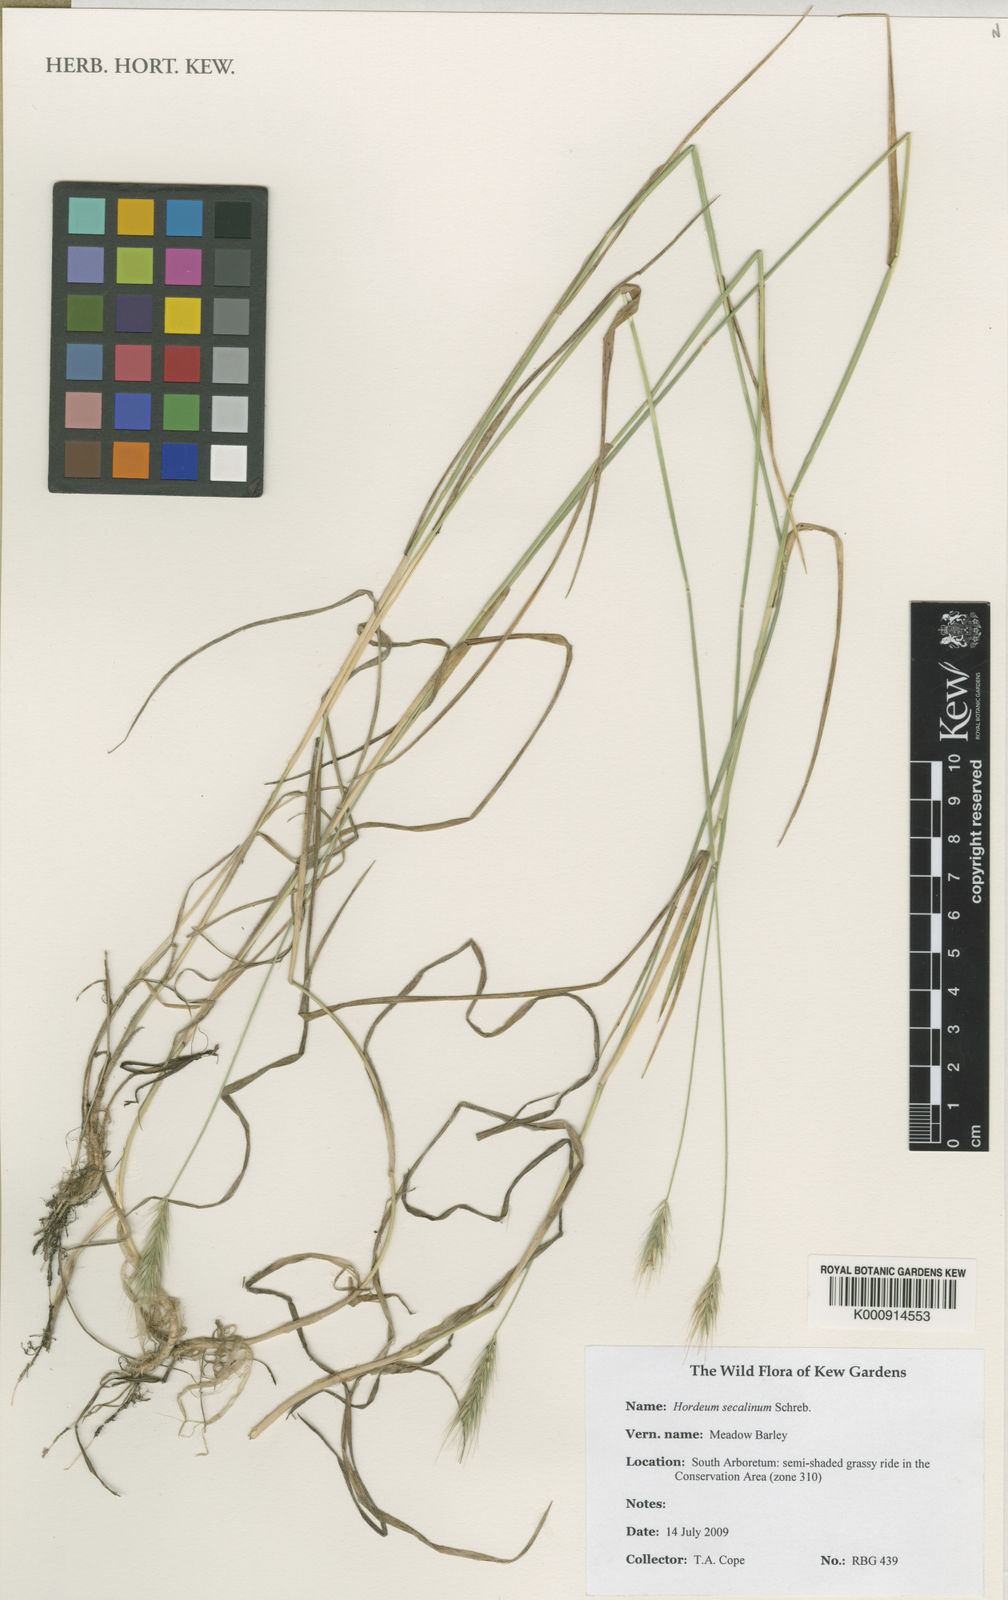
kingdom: Plantae
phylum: Tracheophyta
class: Liliopsida
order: Poales
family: Poaceae
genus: Hordeum
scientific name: Hordeum secalinum
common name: Meadow barley
